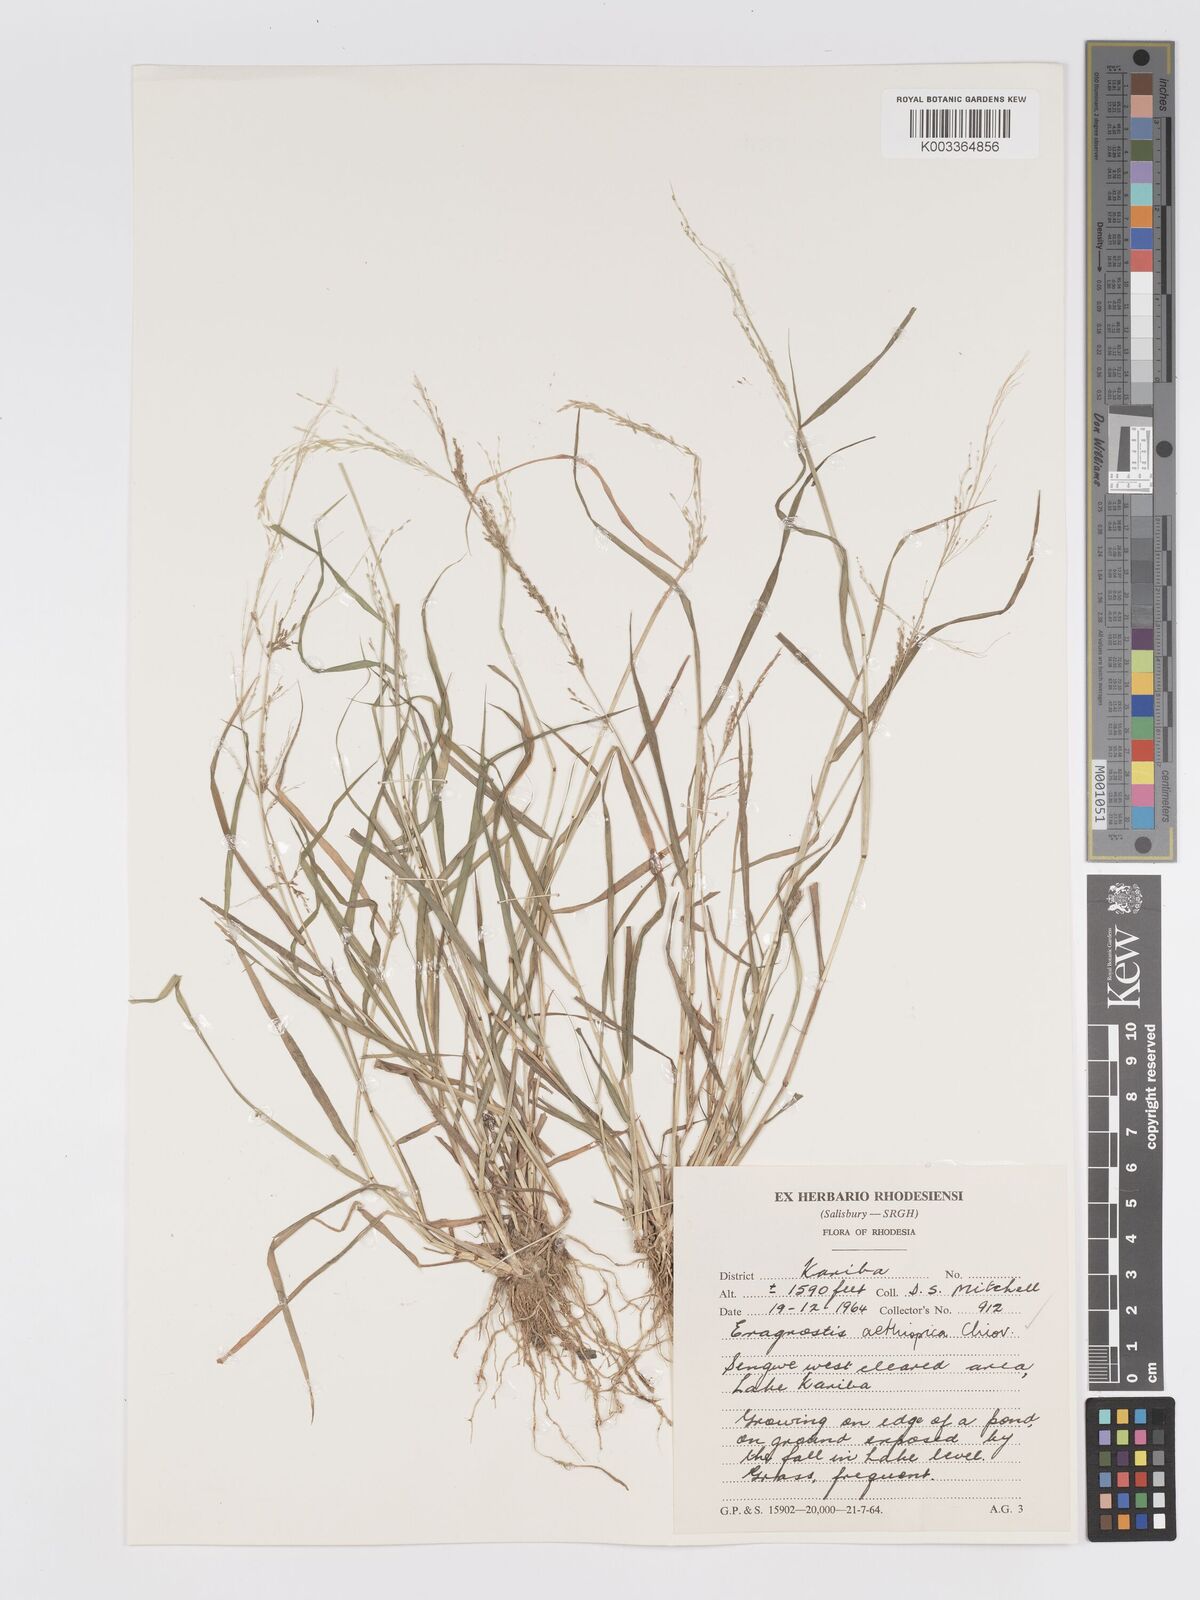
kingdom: Plantae
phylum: Tracheophyta
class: Liliopsida
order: Poales
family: Poaceae
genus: Eragrostis
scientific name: Eragrostis aethiopica
